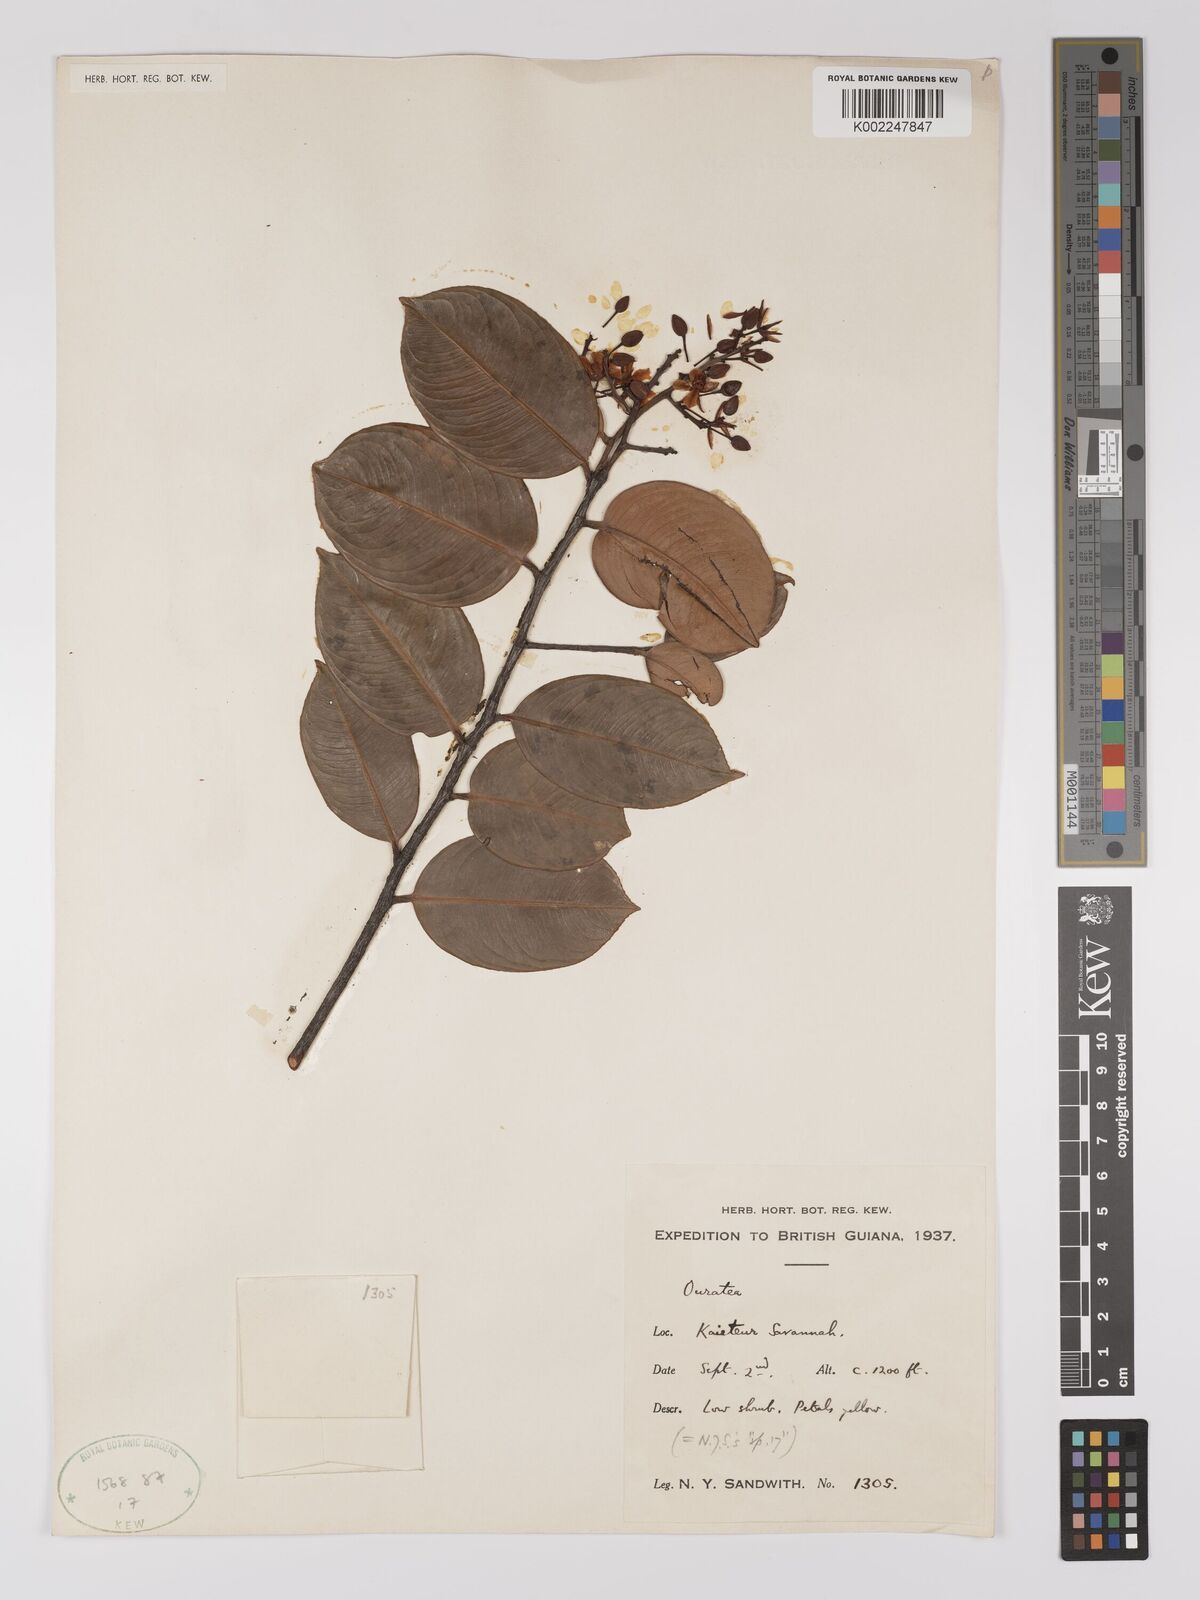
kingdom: Plantae
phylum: Tracheophyta
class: Magnoliopsida
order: Malpighiales
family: Ochnaceae
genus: Ouratea
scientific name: Ouratea
